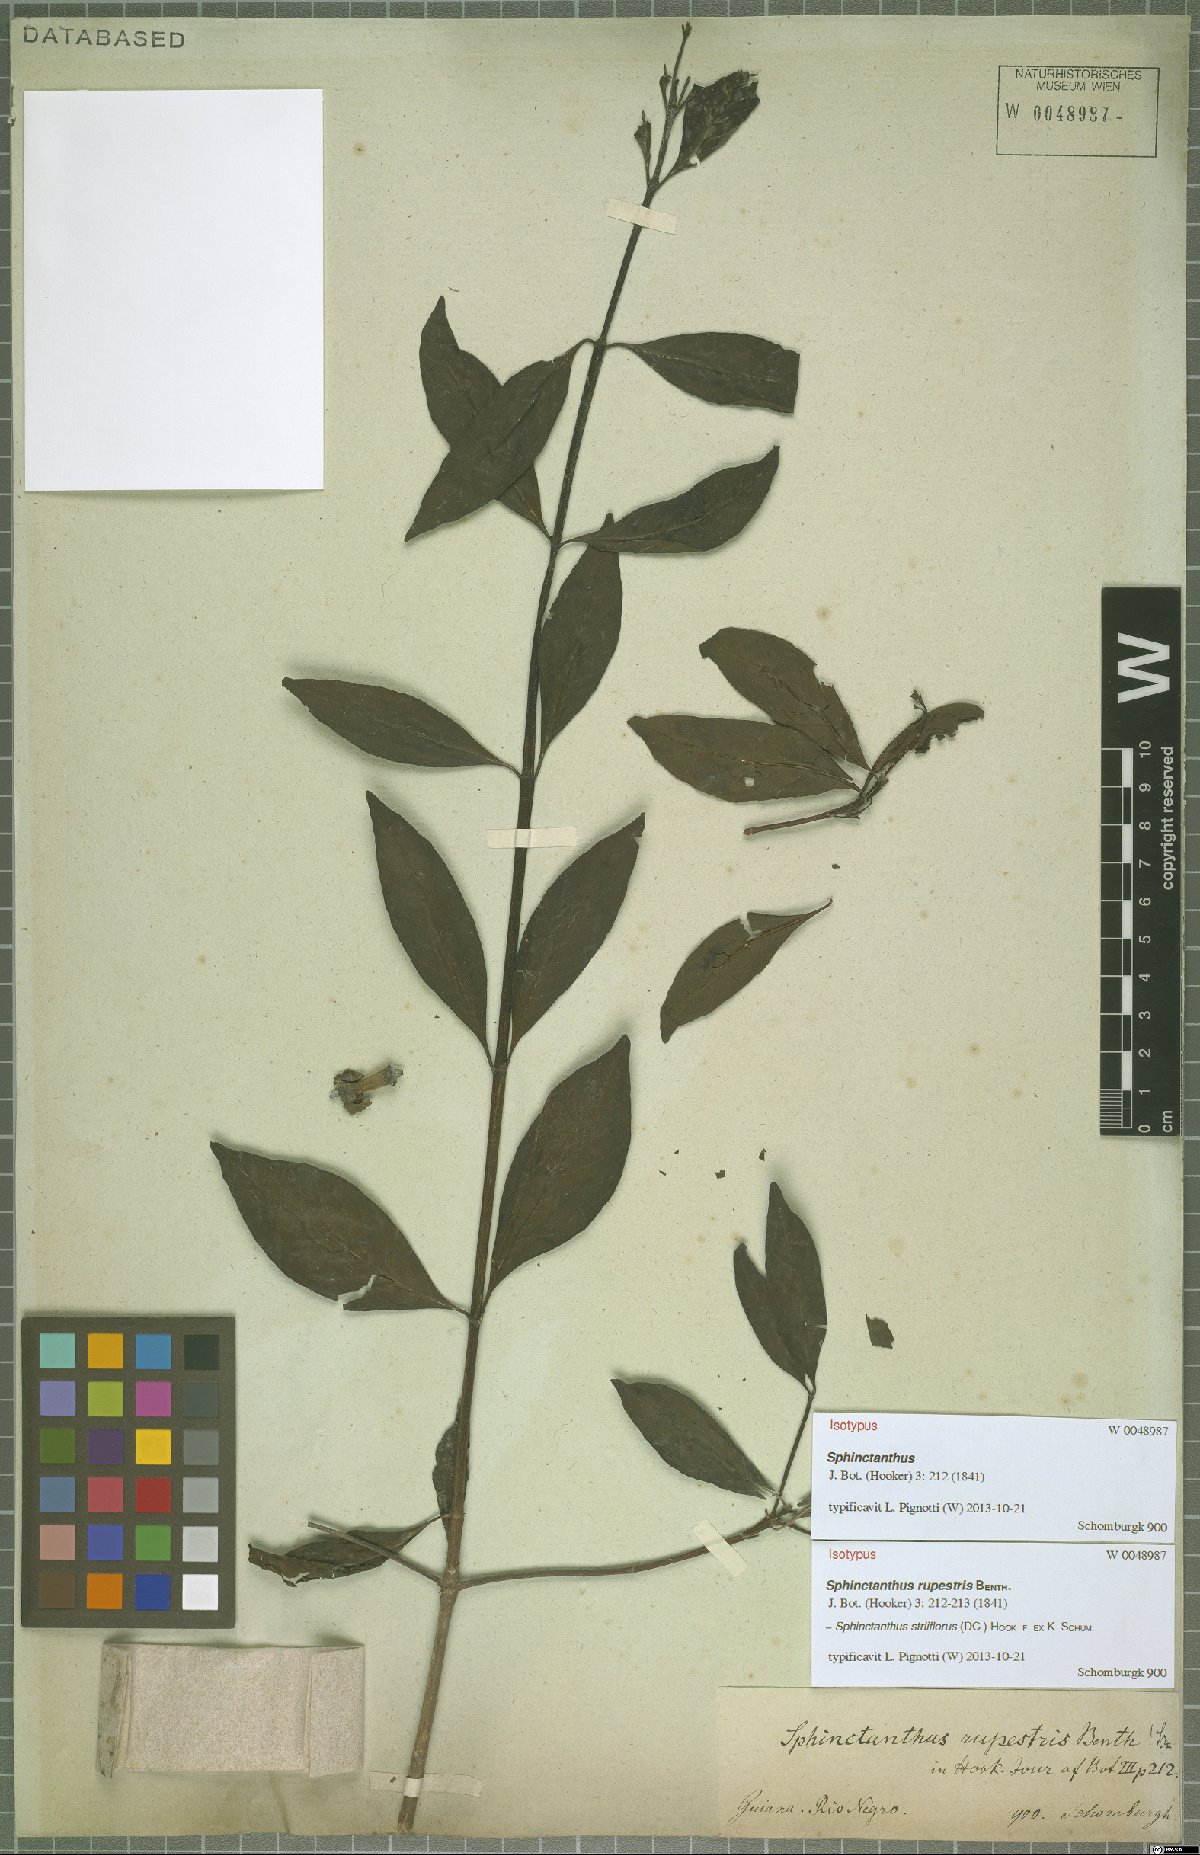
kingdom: Plantae
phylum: Tracheophyta
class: Magnoliopsida
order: Gentianales
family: Rubiaceae
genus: Sphinctanthus
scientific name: Sphinctanthus striiflorus
